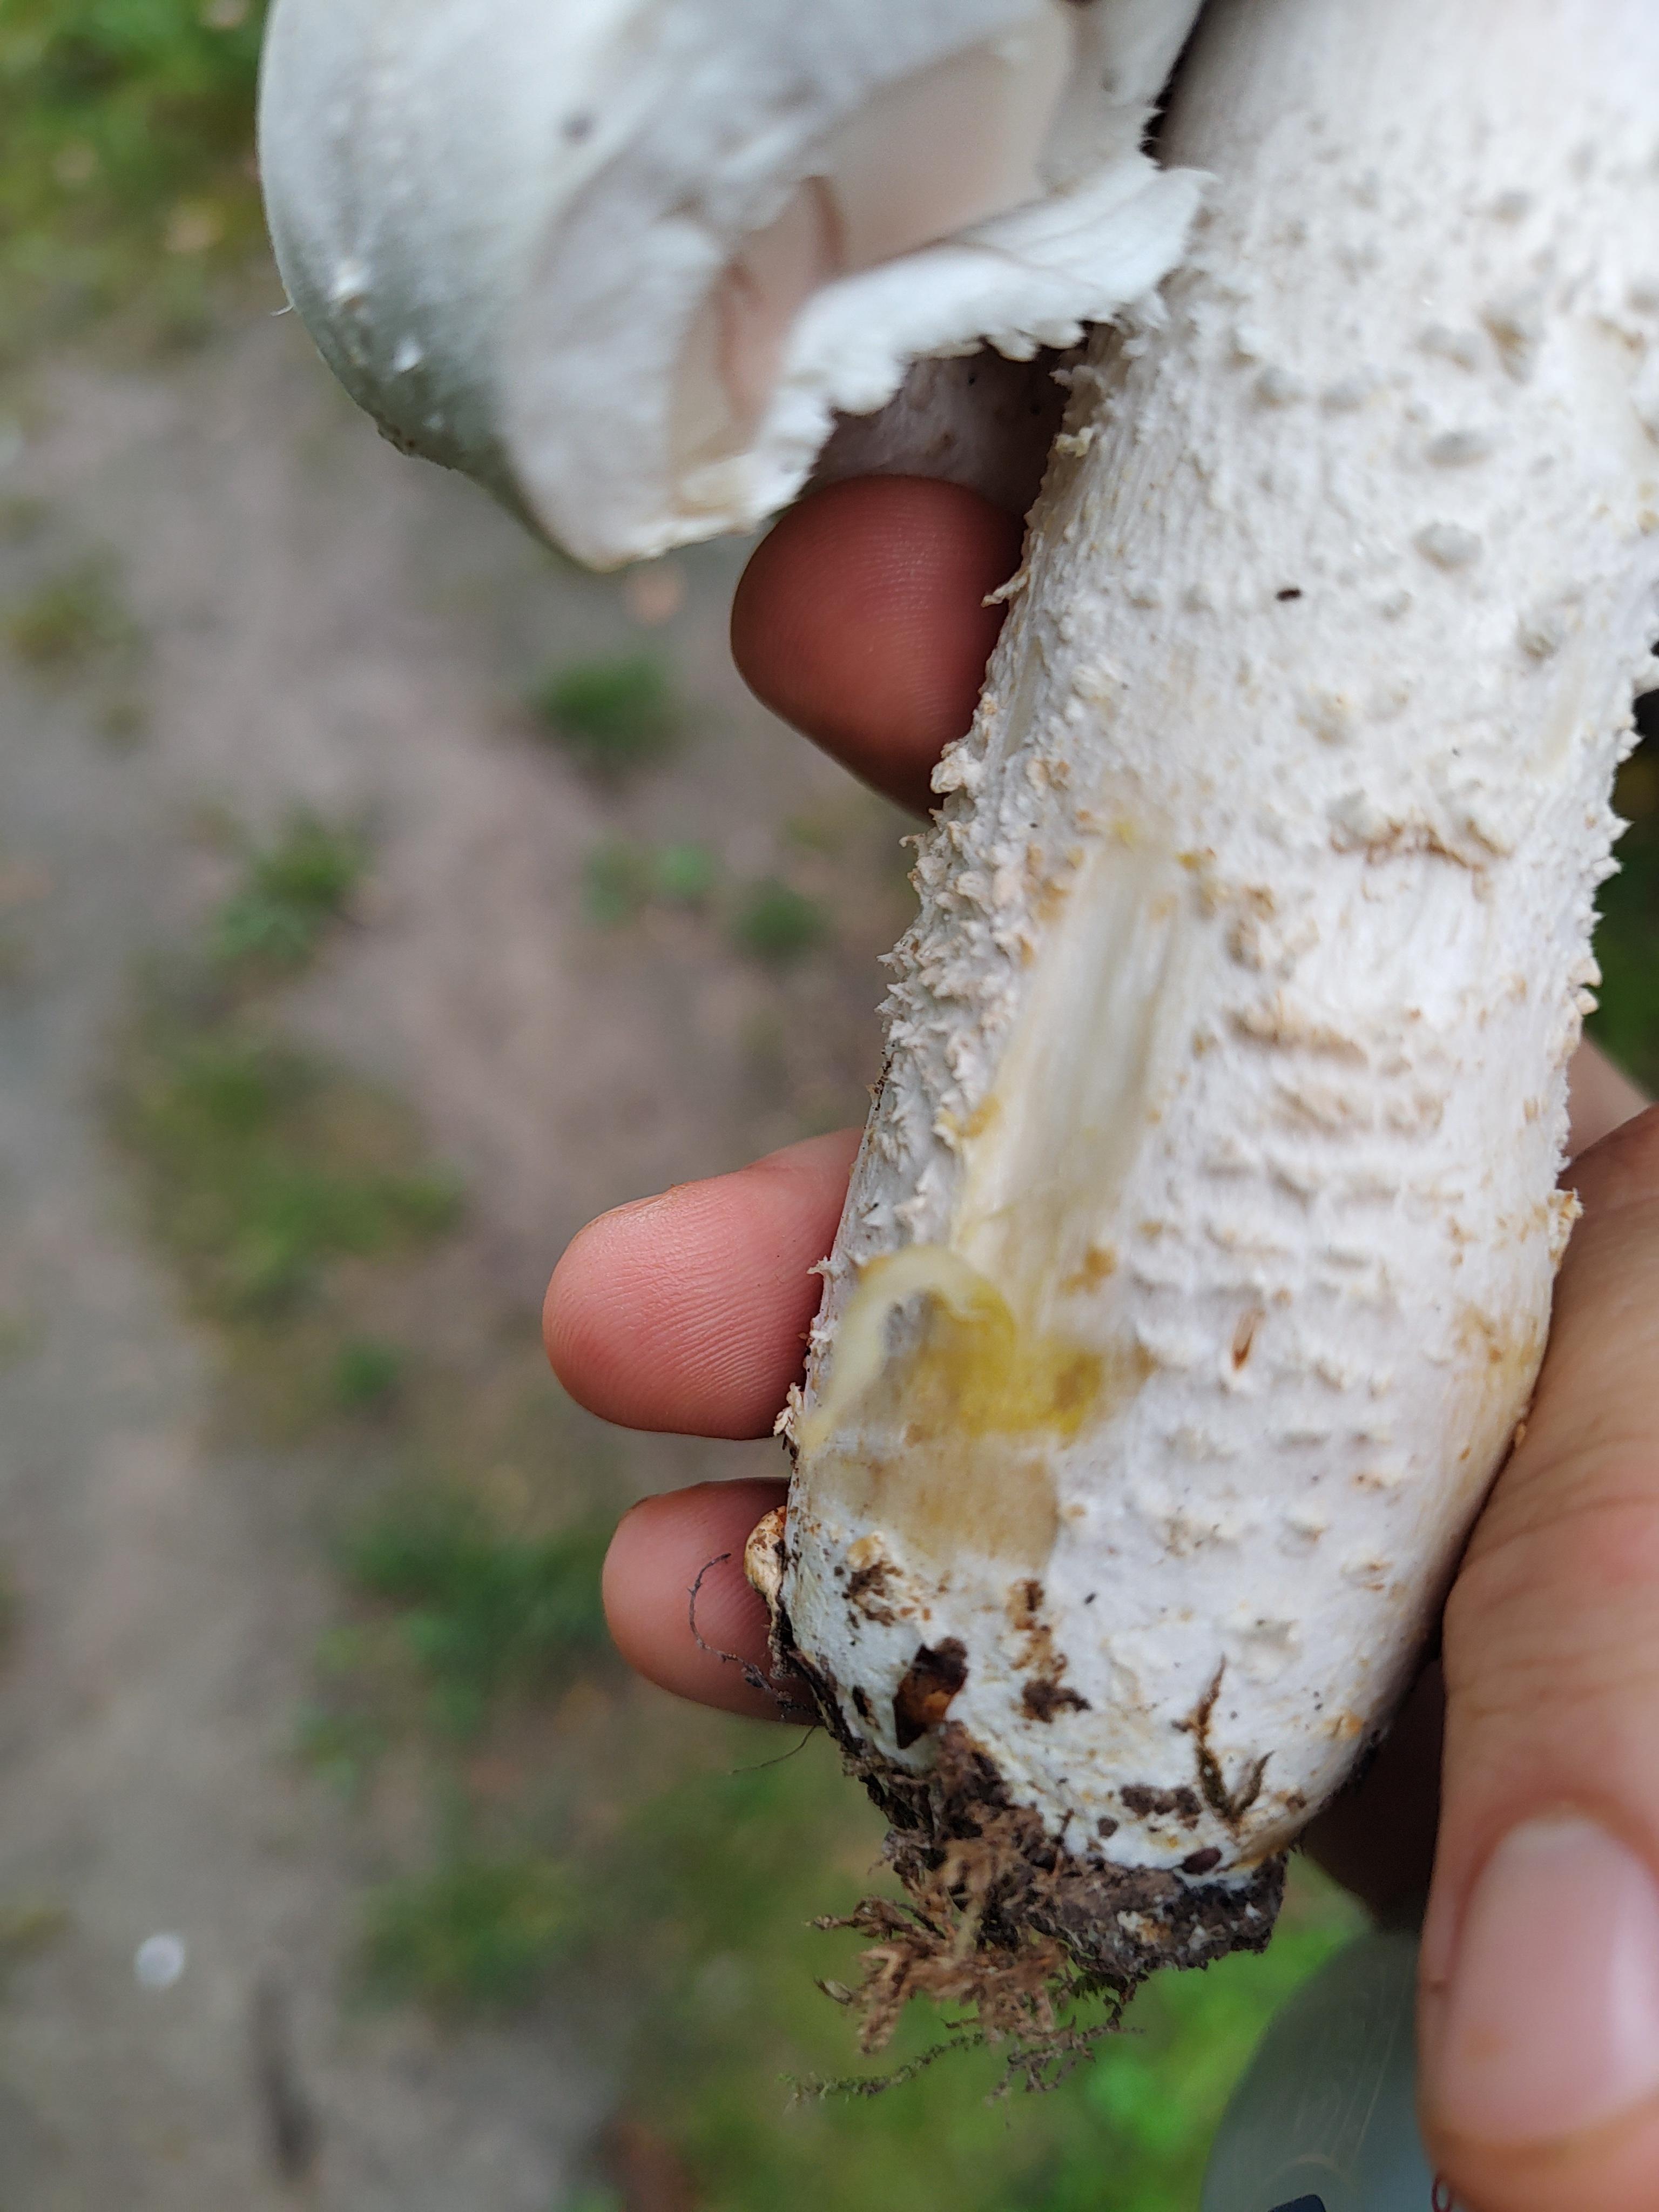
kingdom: Fungi
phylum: Basidiomycota
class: Agaricomycetes
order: Agaricales
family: Agaricaceae
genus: Agaricus
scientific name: Agaricus
